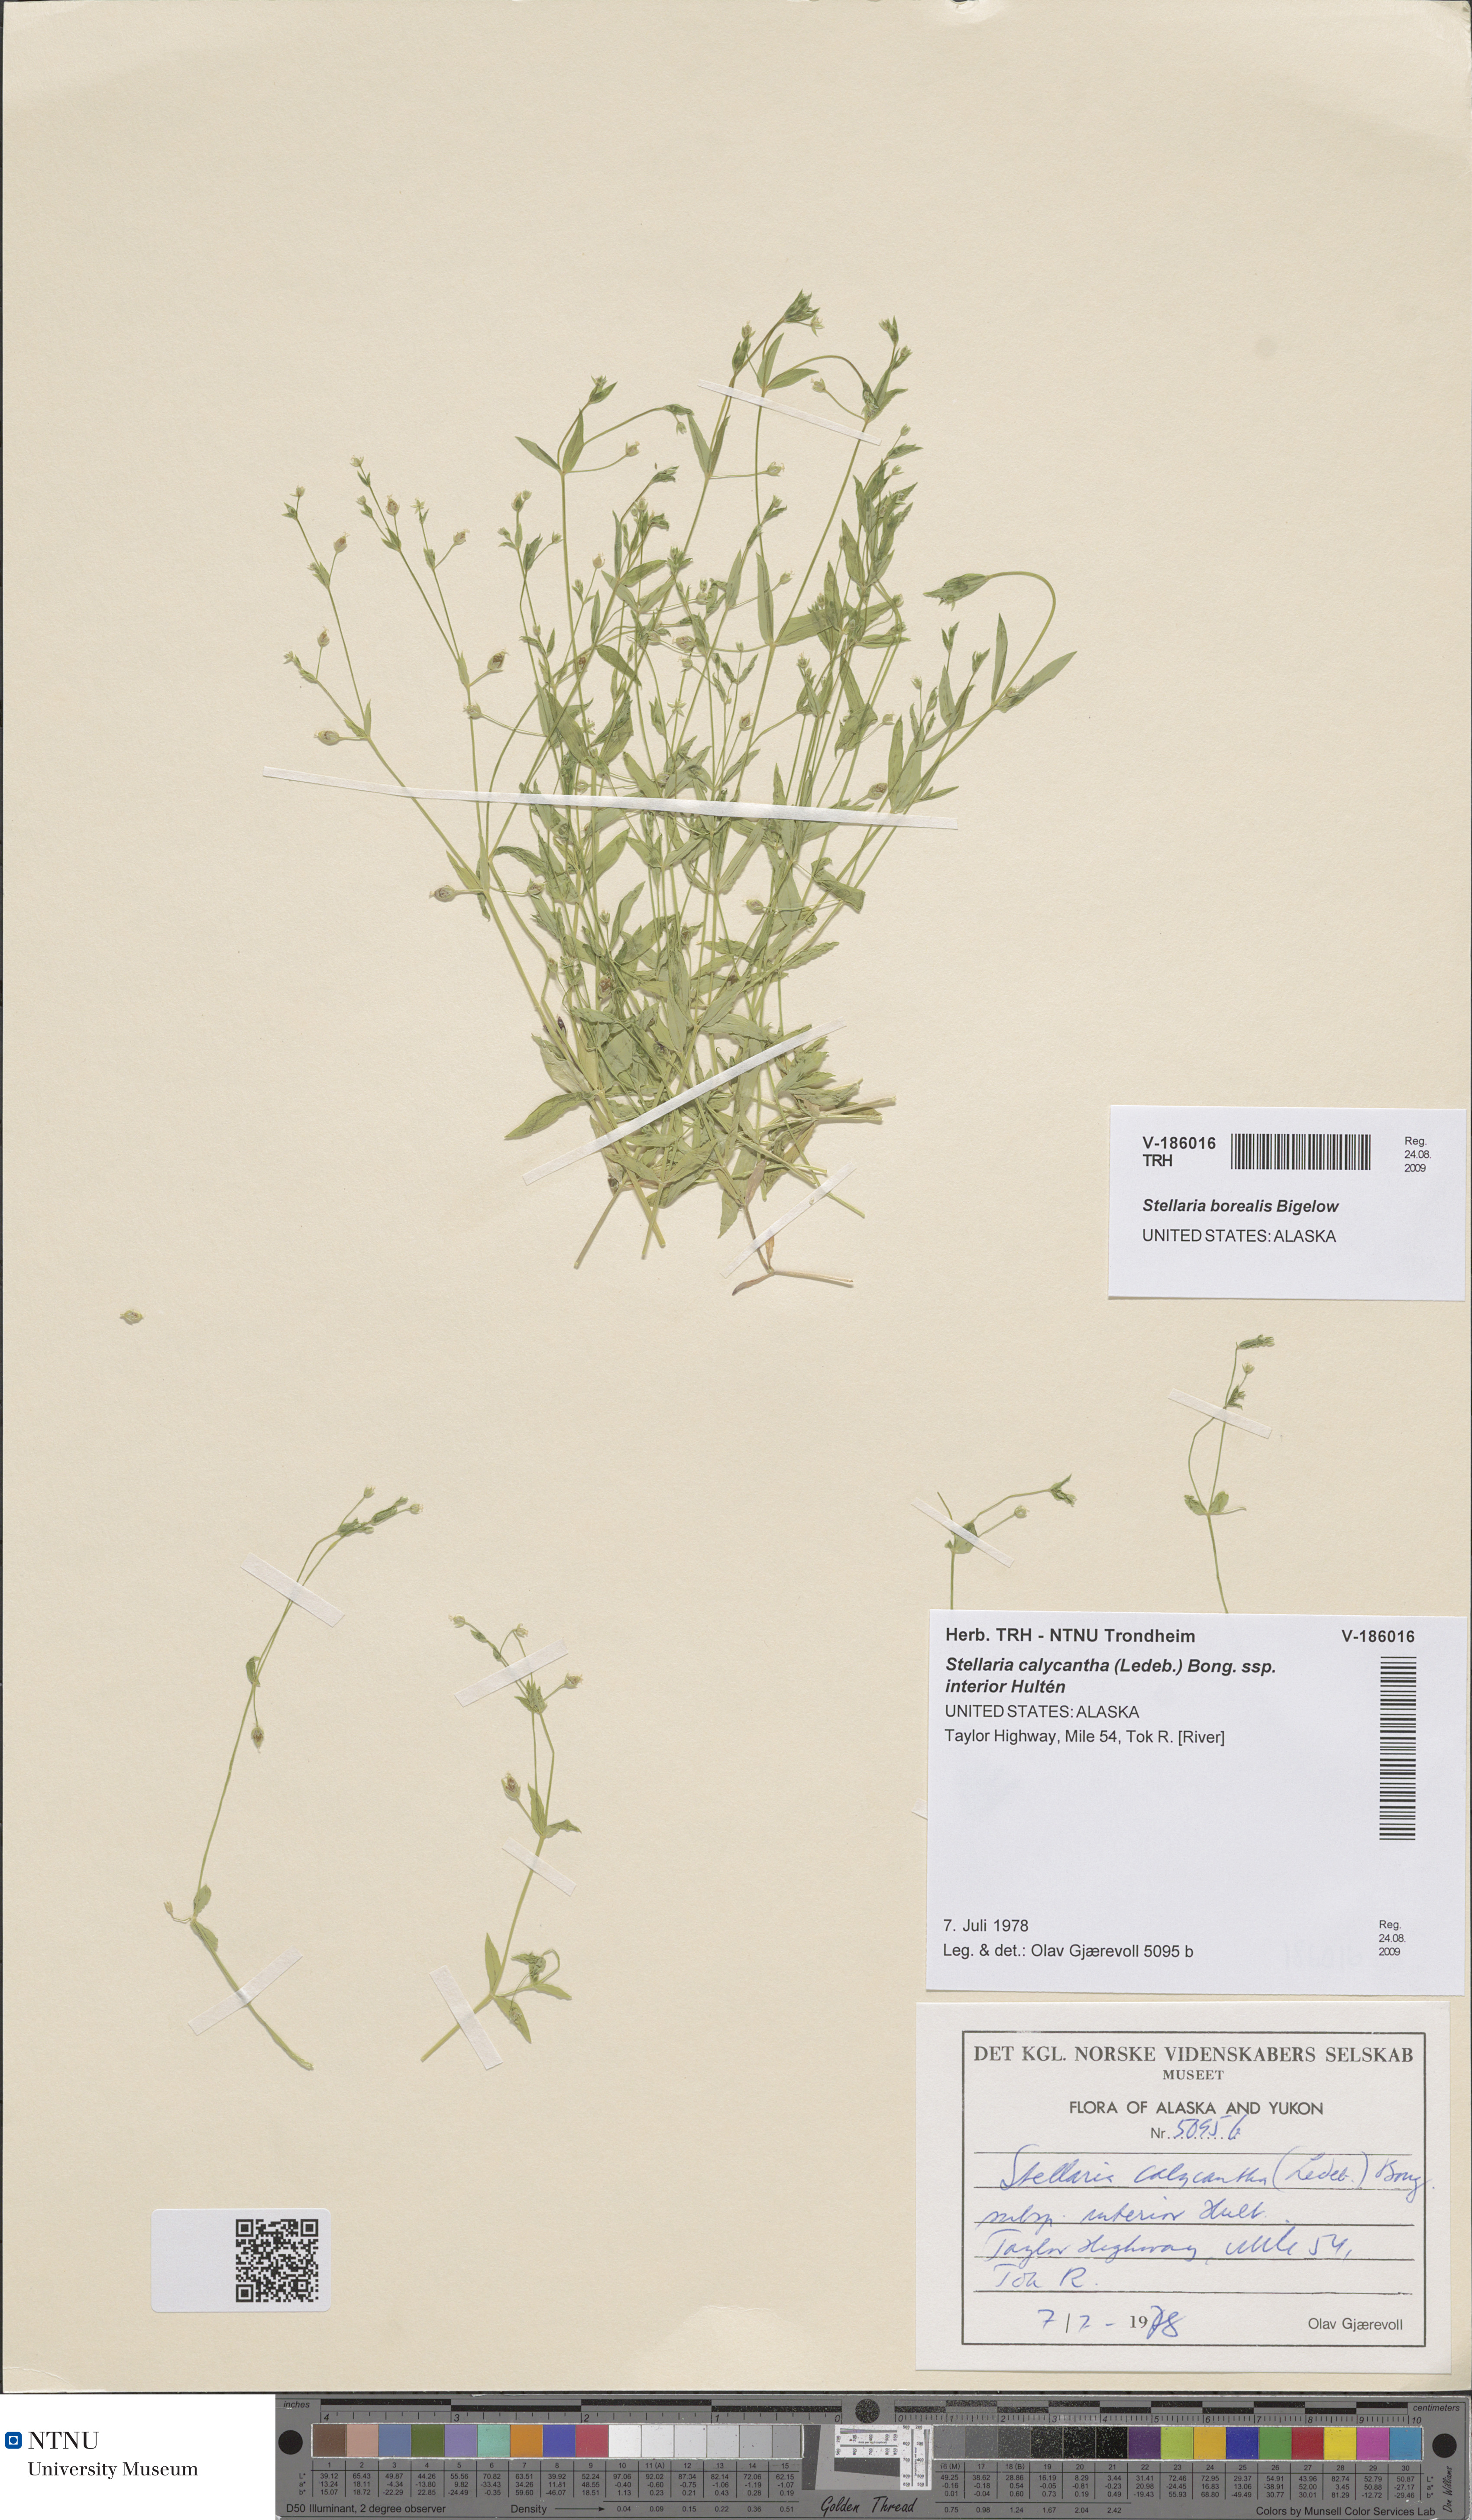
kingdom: Plantae
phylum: Tracheophyta
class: Magnoliopsida
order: Caryophyllales
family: Caryophyllaceae
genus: Stellaria
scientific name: Stellaria borealis
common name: Boreal starwort
